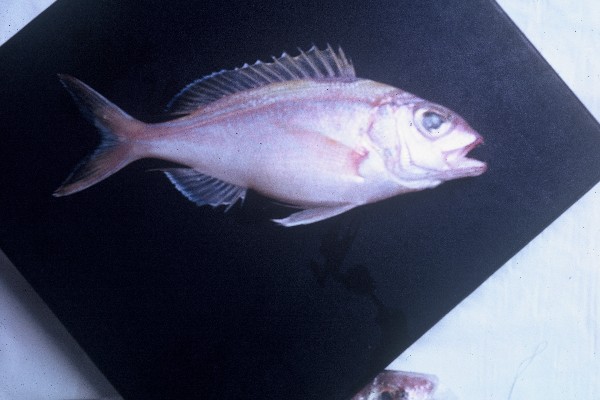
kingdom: Animalia
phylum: Chordata
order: Perciformes
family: Lutjanidae
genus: Pristipomoides
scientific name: Pristipomoides
